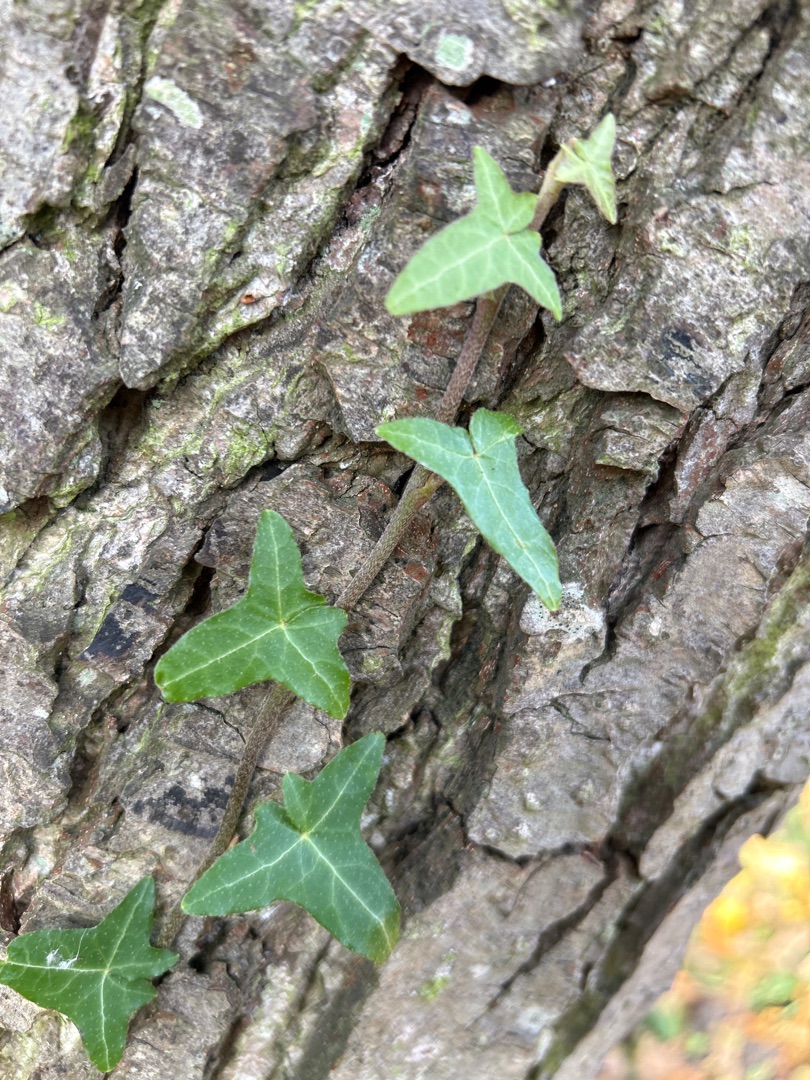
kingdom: Plantae
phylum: Tracheophyta
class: Magnoliopsida
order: Apiales
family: Araliaceae
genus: Hedera
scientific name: Hedera helix
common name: Vedbend
